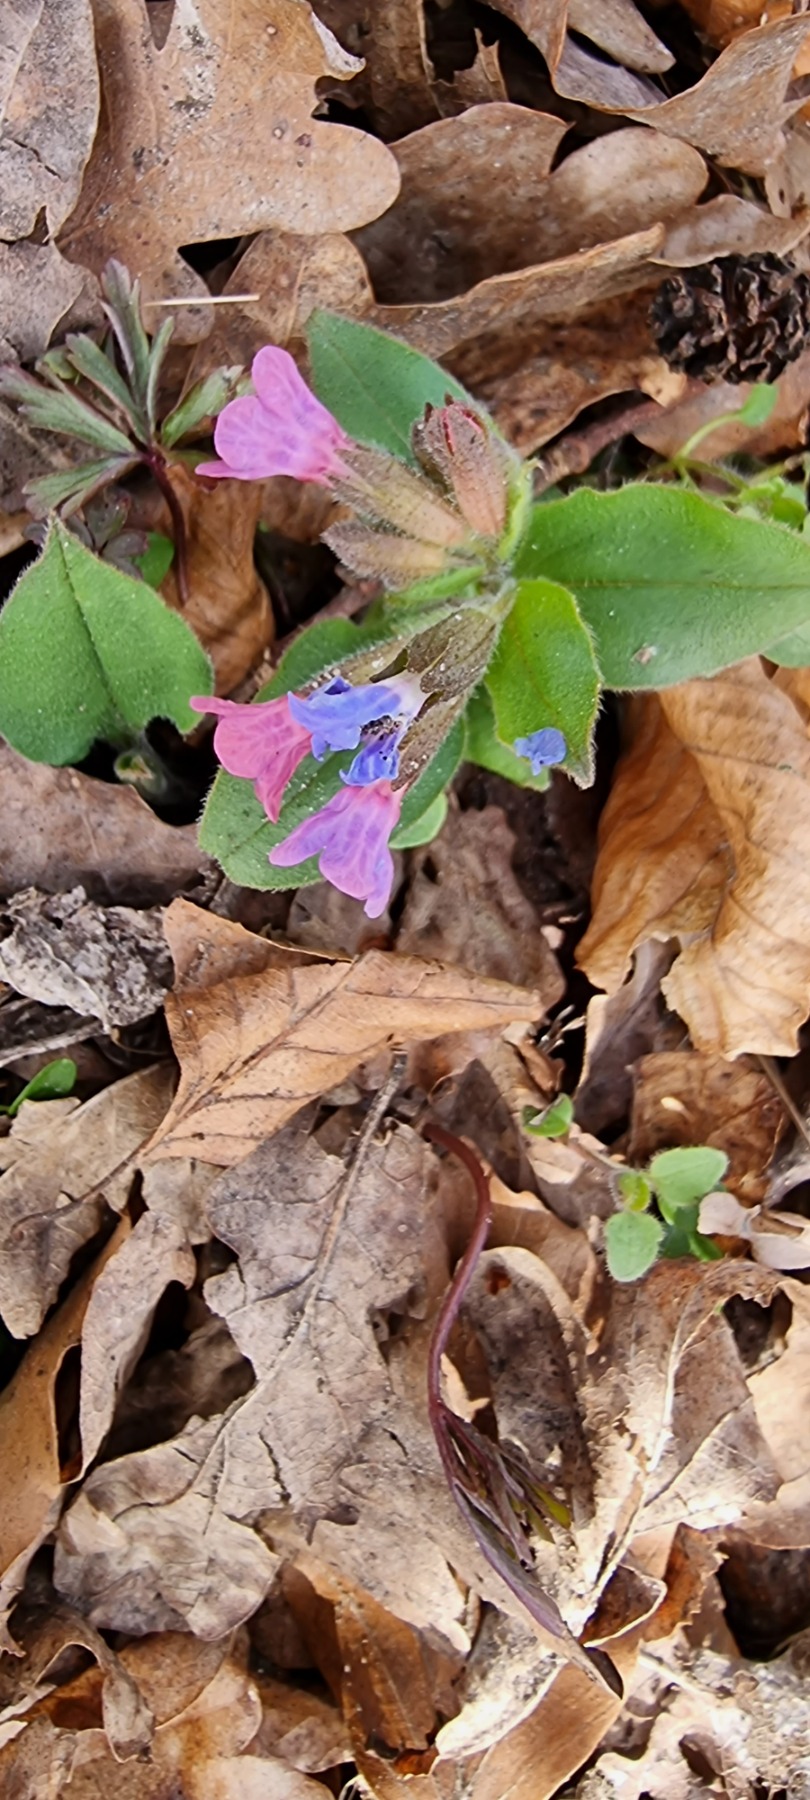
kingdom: Plantae
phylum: Tracheophyta
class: Magnoliopsida
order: Boraginales
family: Boraginaceae
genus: Pulmonaria
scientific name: Pulmonaria obscura
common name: Almindelig lungeurt
